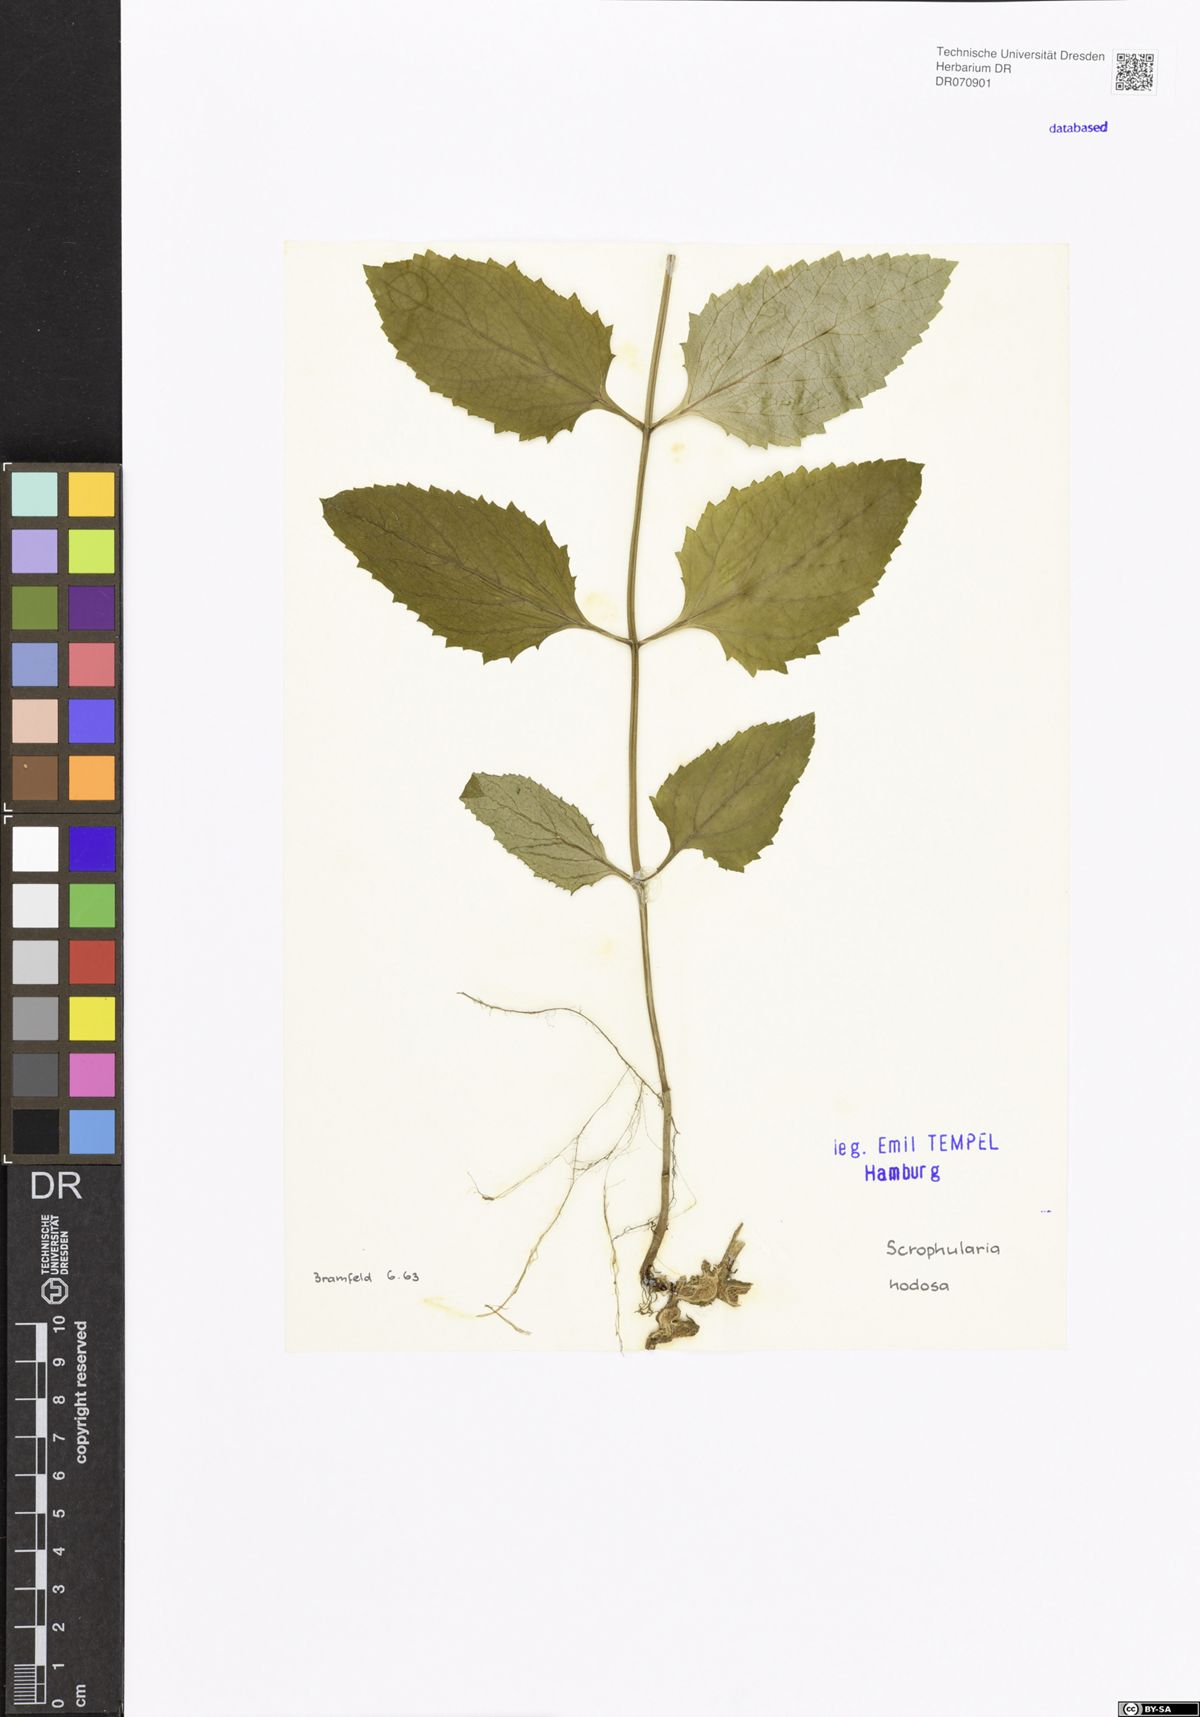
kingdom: Plantae
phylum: Tracheophyta
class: Magnoliopsida
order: Lamiales
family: Scrophulariaceae
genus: Scrophularia
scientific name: Scrophularia nodosa
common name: Common figwort
